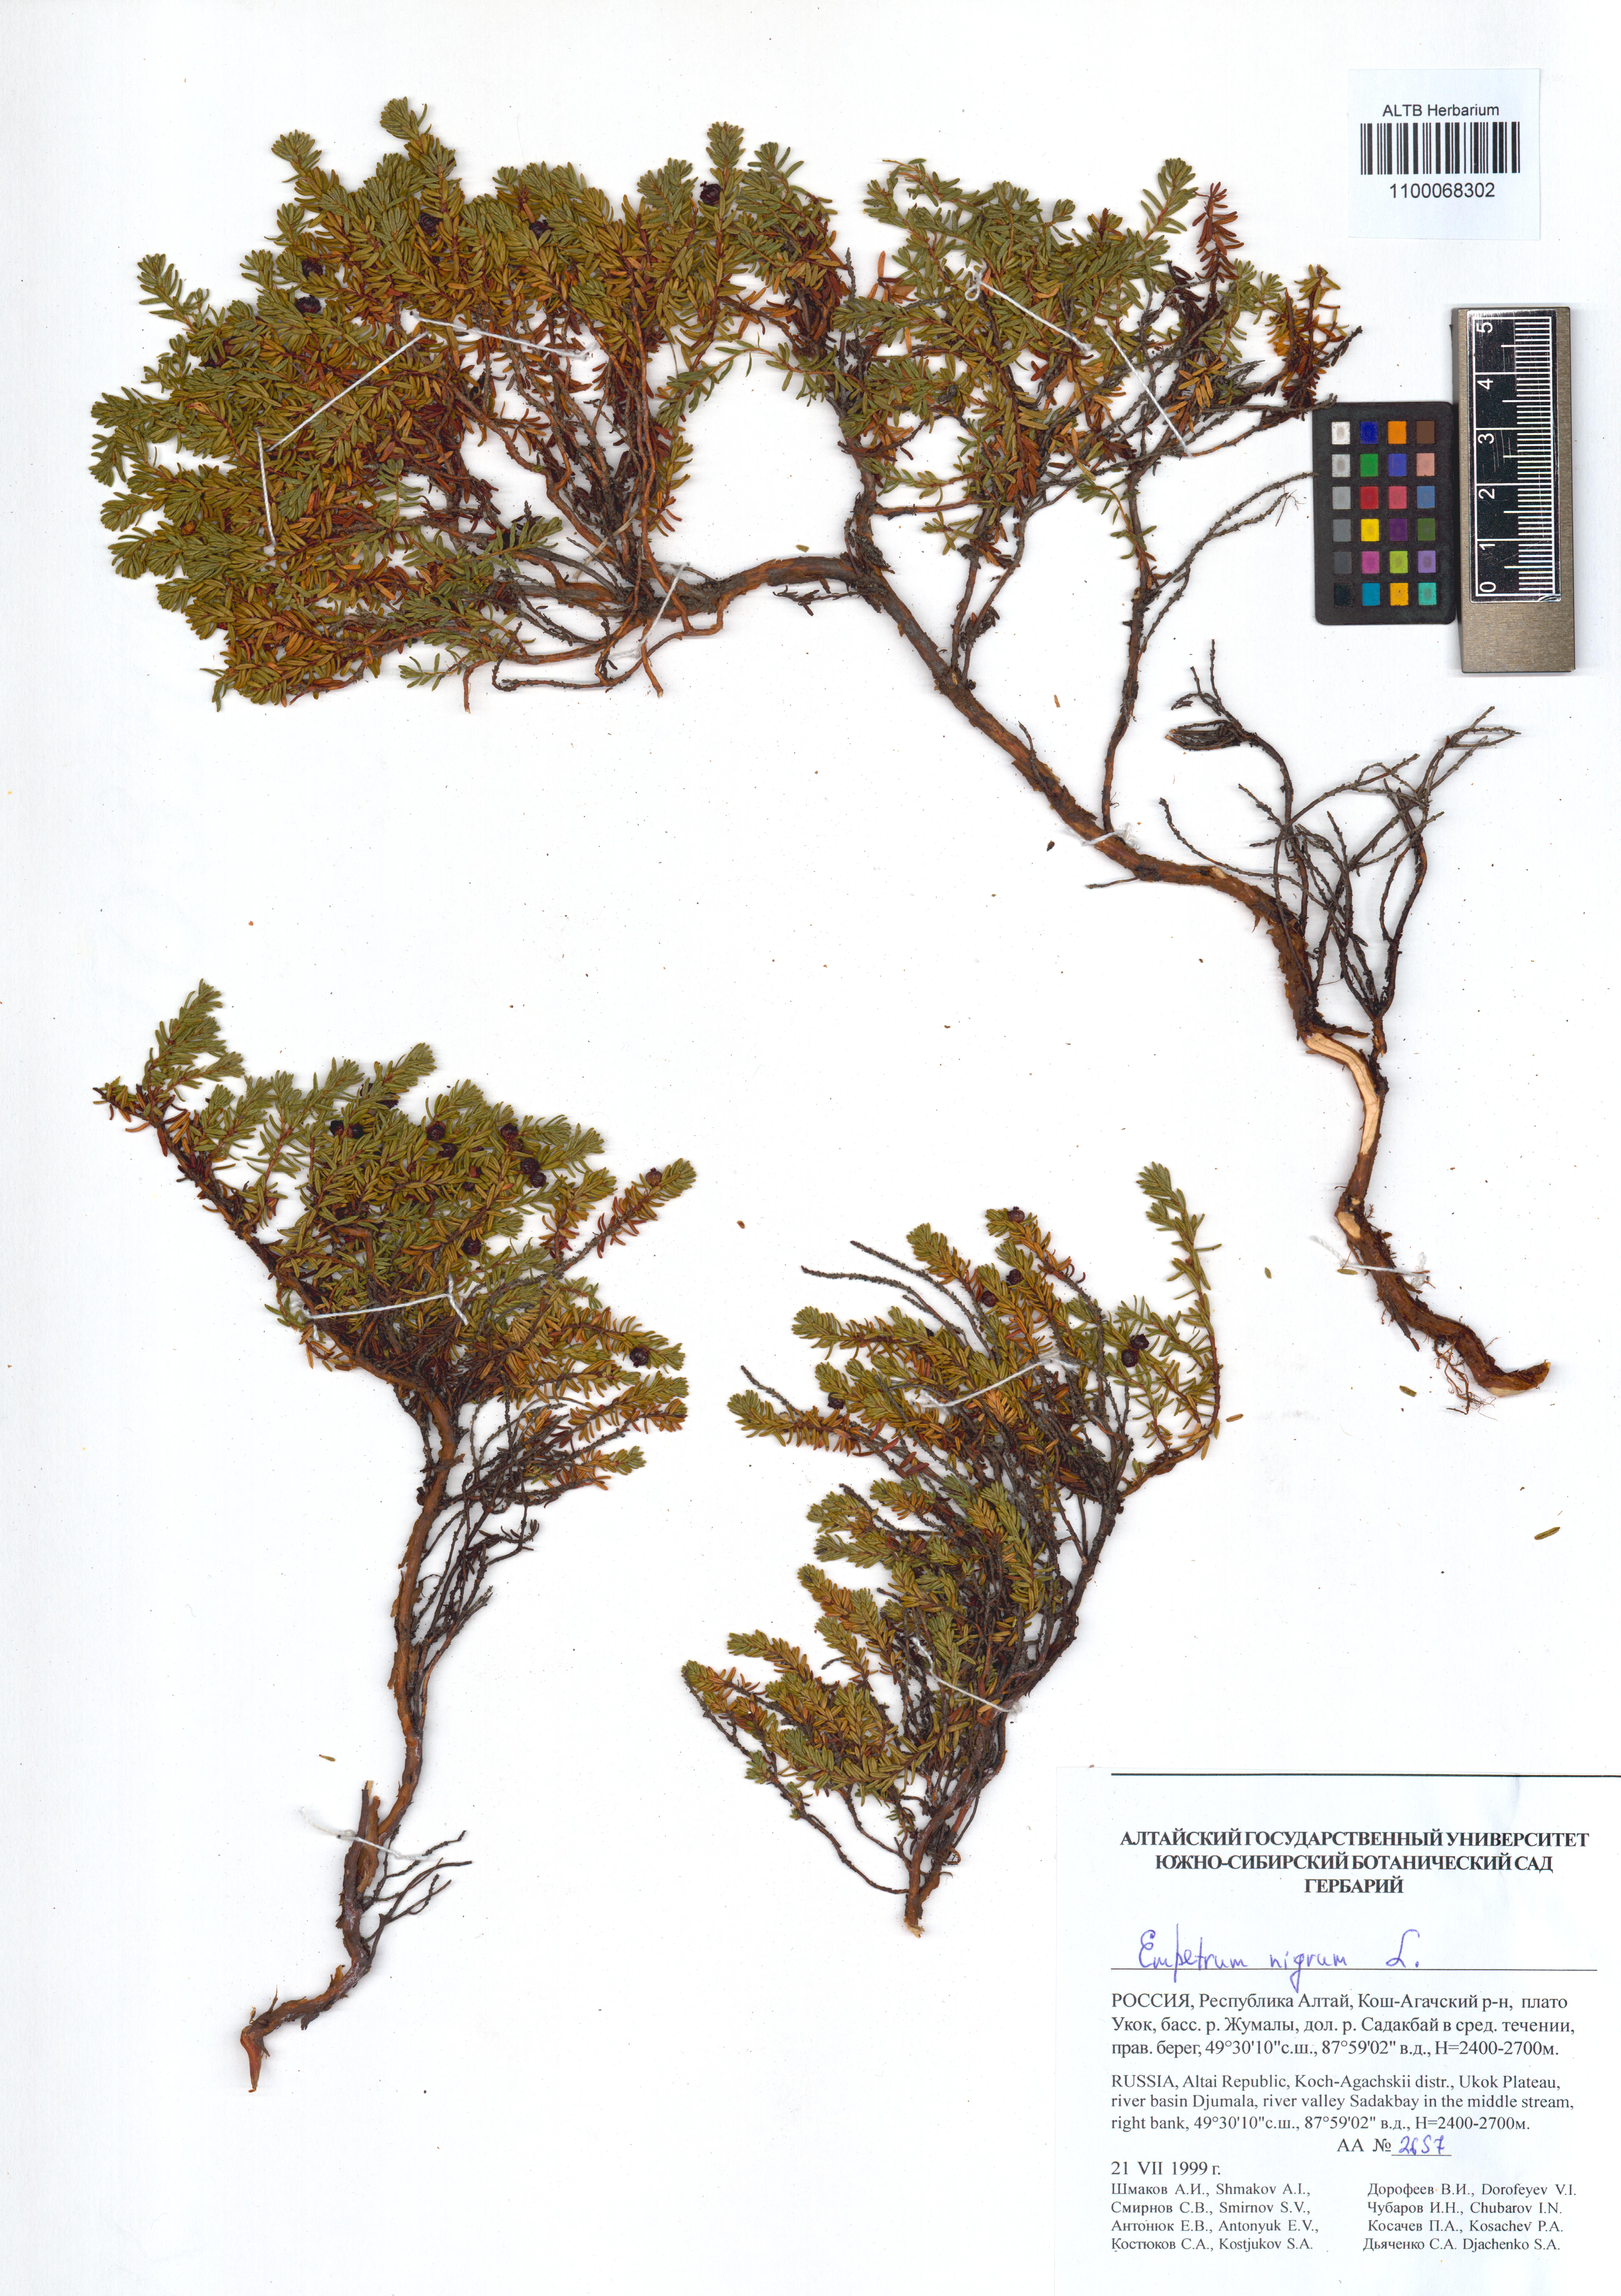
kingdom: Plantae
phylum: Tracheophyta
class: Magnoliopsida
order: Ericales
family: Ericaceae
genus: Empetrum
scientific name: Empetrum nigrum
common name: Black crowberry
